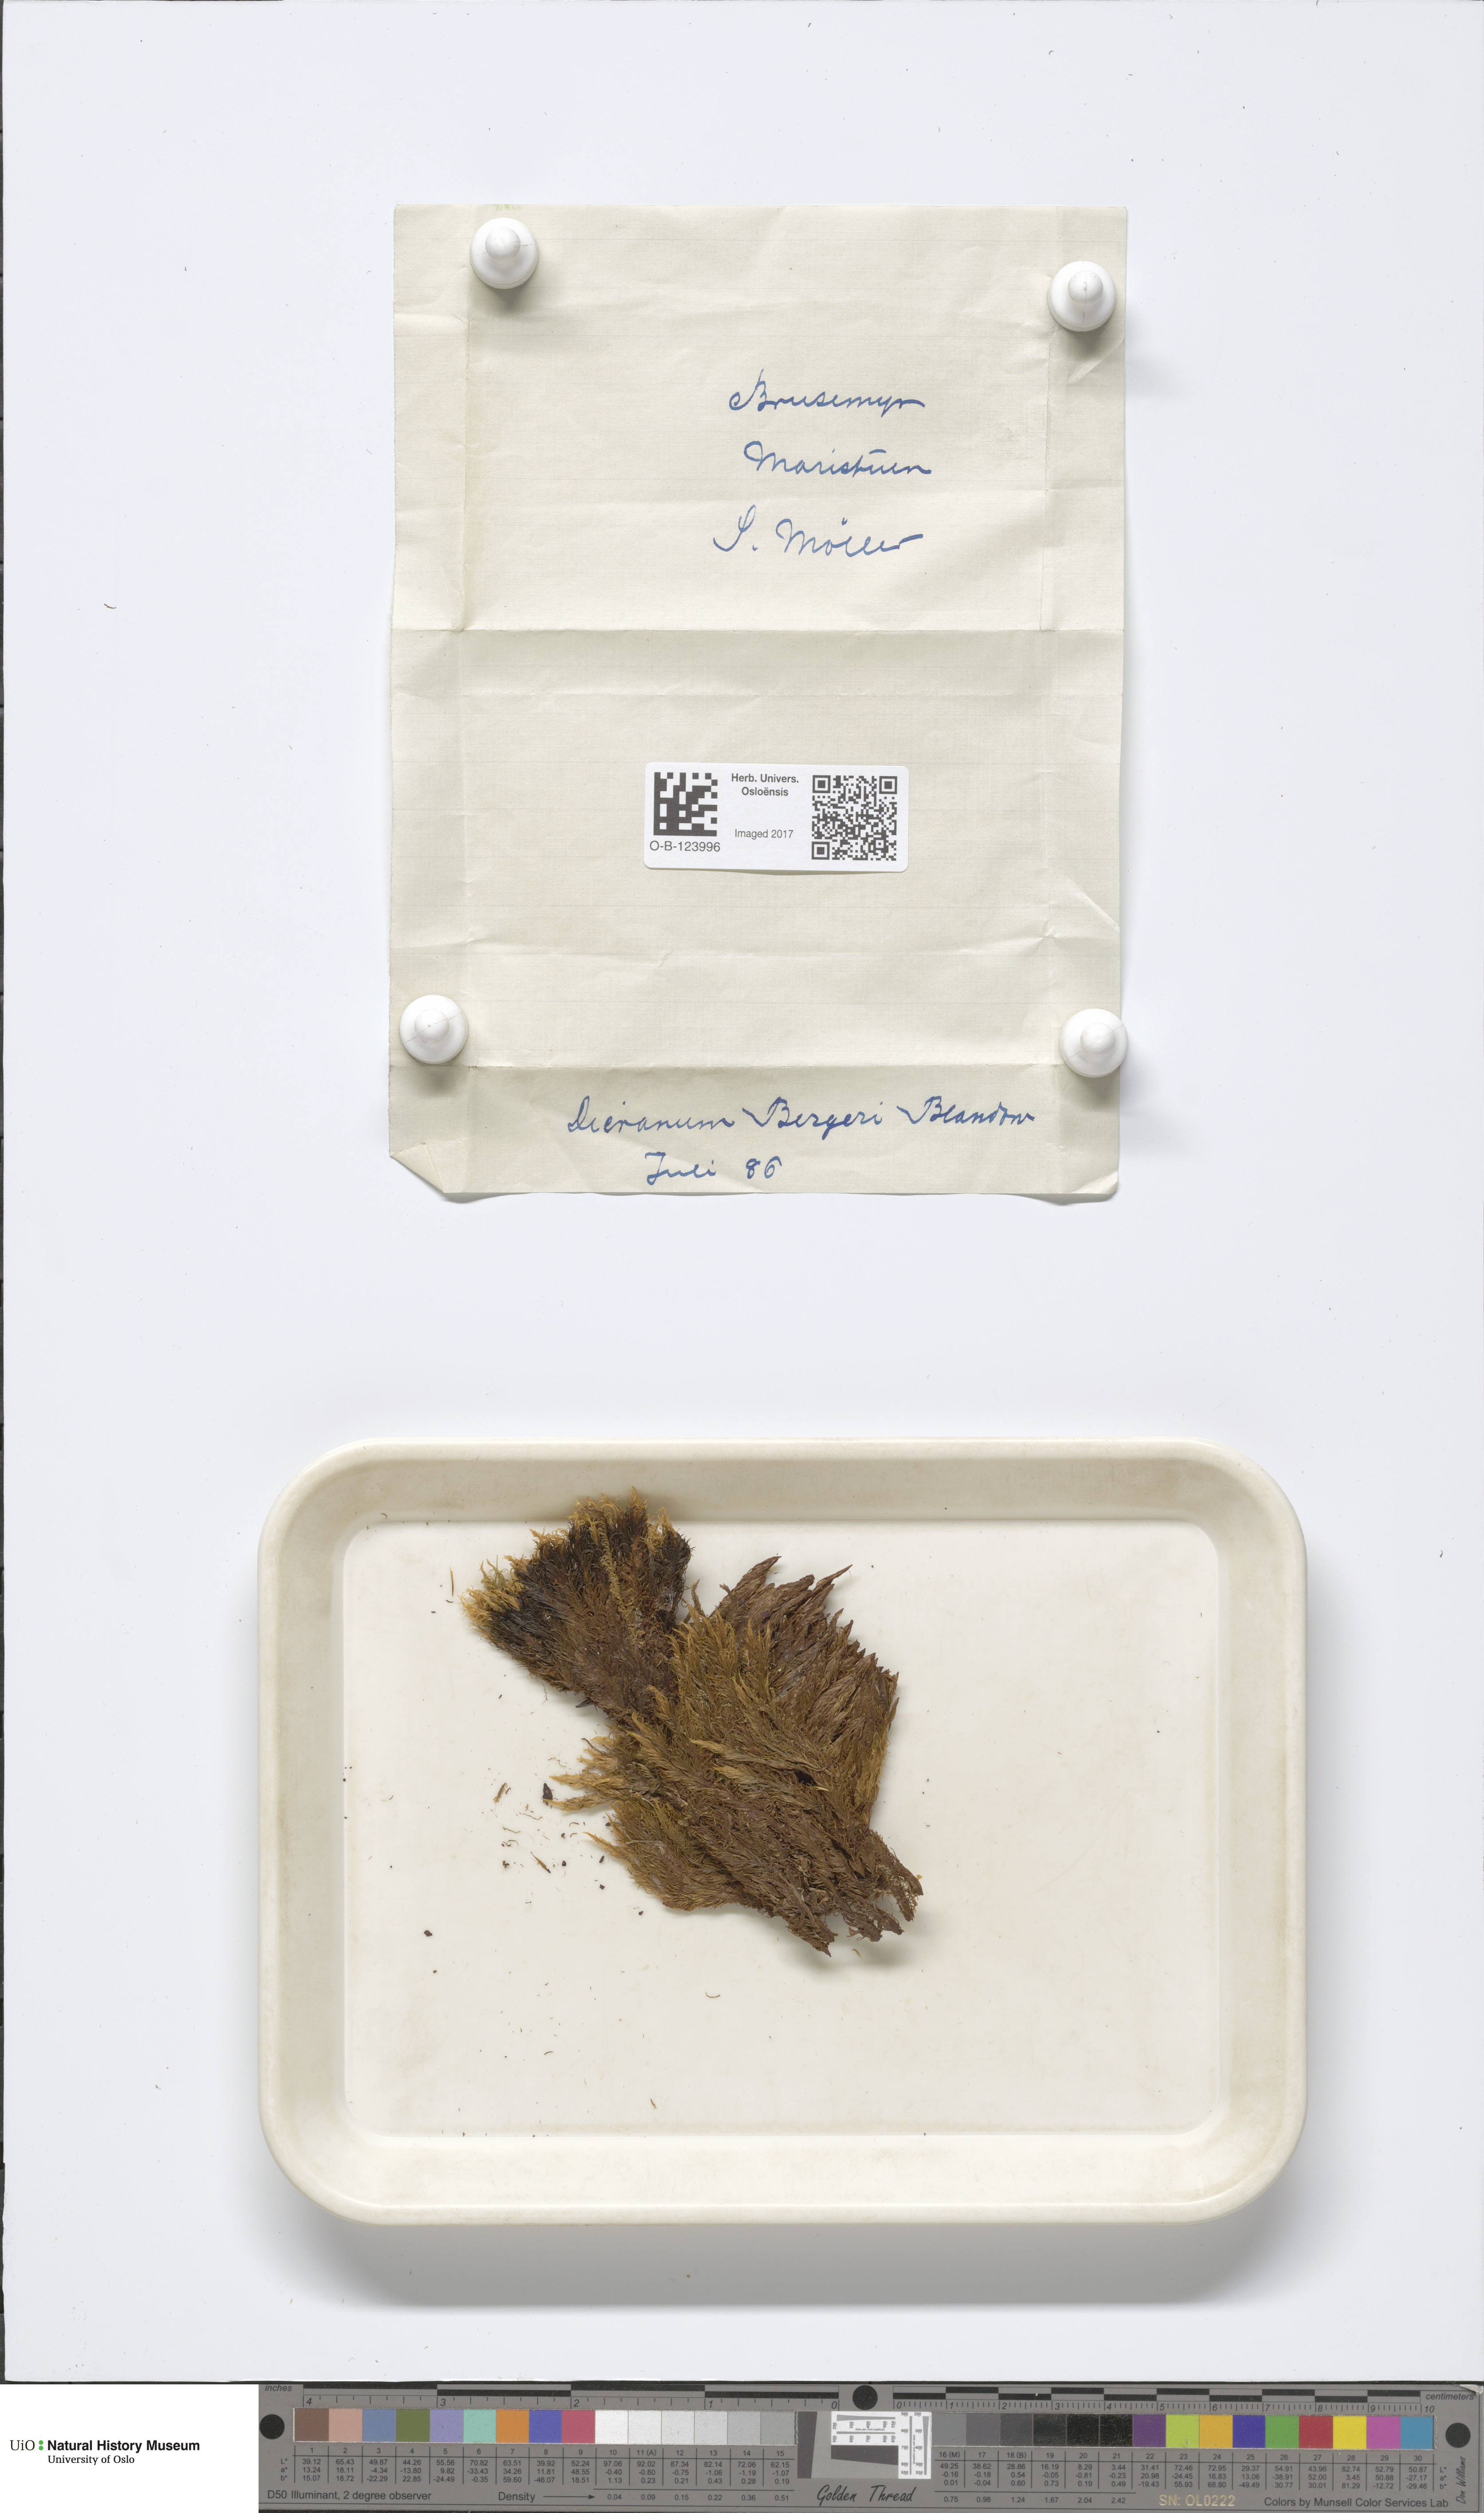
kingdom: Plantae
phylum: Bryophyta
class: Bryopsida
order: Dicranales
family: Dicranaceae
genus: Dicranum
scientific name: Dicranum undulatum
